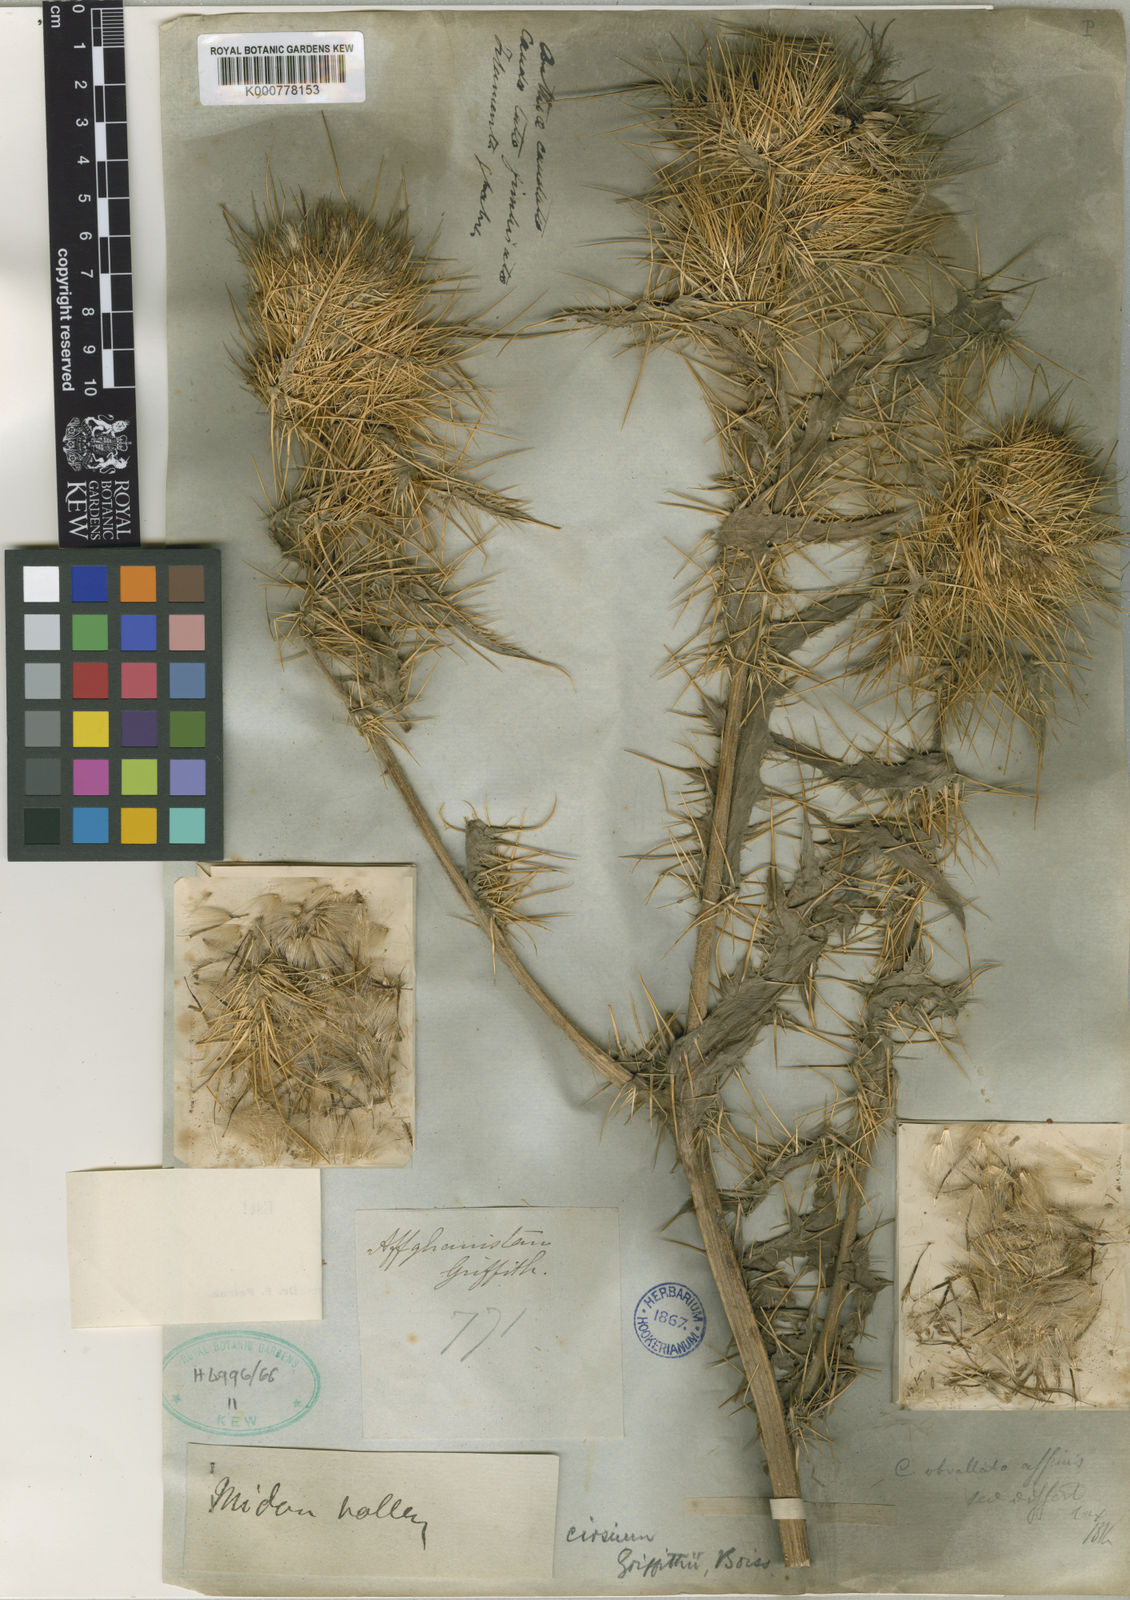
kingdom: Plantae
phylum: Tracheophyta
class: Magnoliopsida
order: Asterales
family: Asteraceae
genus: Lophiolepis
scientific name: Lophiolepis griffithii
